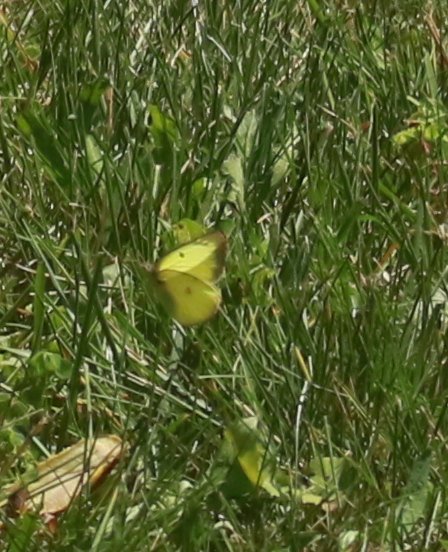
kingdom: Animalia
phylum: Arthropoda
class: Insecta
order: Lepidoptera
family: Pieridae
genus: Colias
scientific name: Colias philodice
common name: Clouded Sulphur
